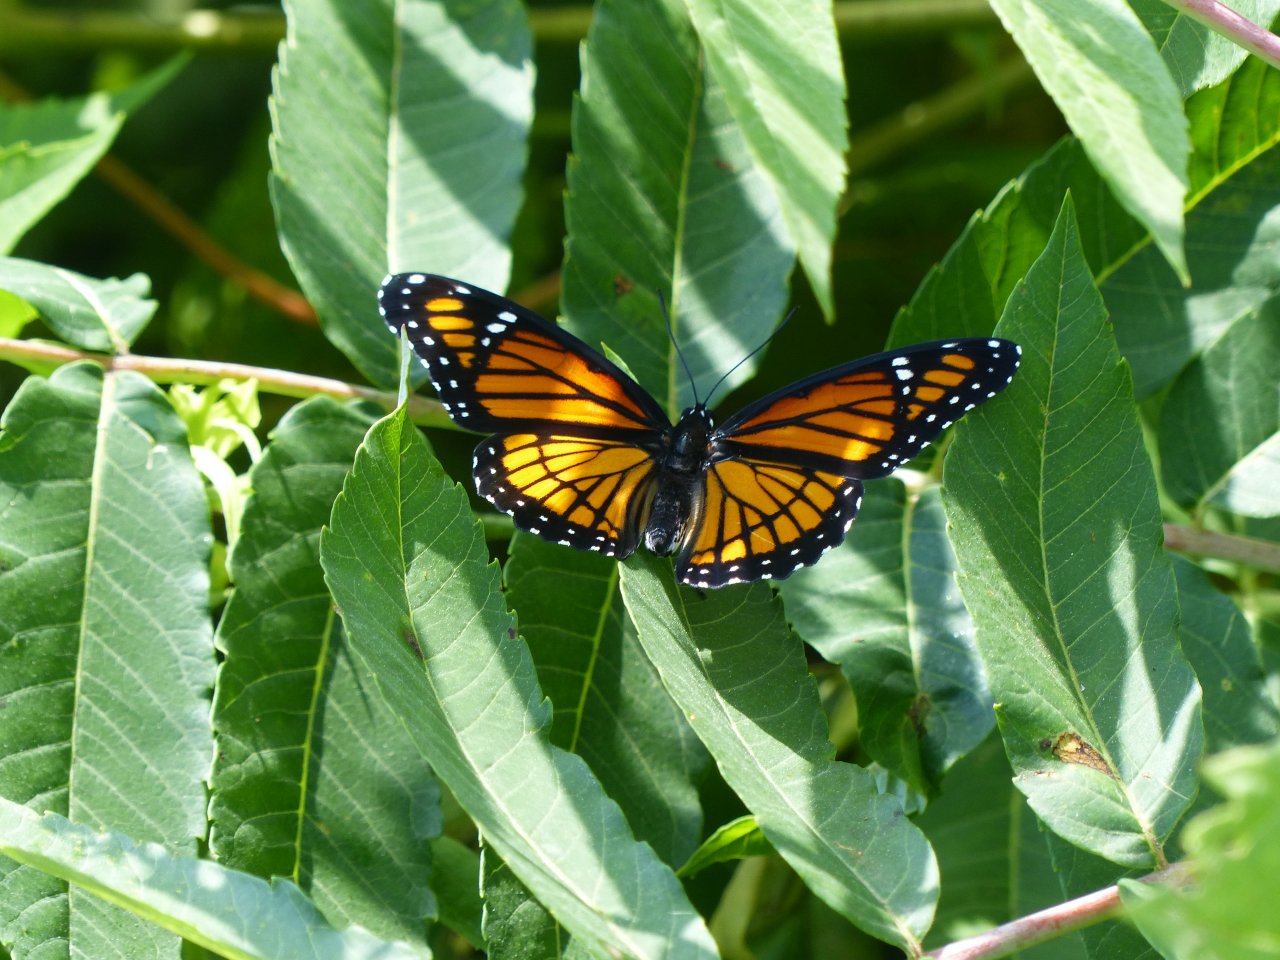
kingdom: Animalia
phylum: Arthropoda
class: Insecta
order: Lepidoptera
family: Nymphalidae
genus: Limenitis
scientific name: Limenitis archippus
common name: Viceroy
